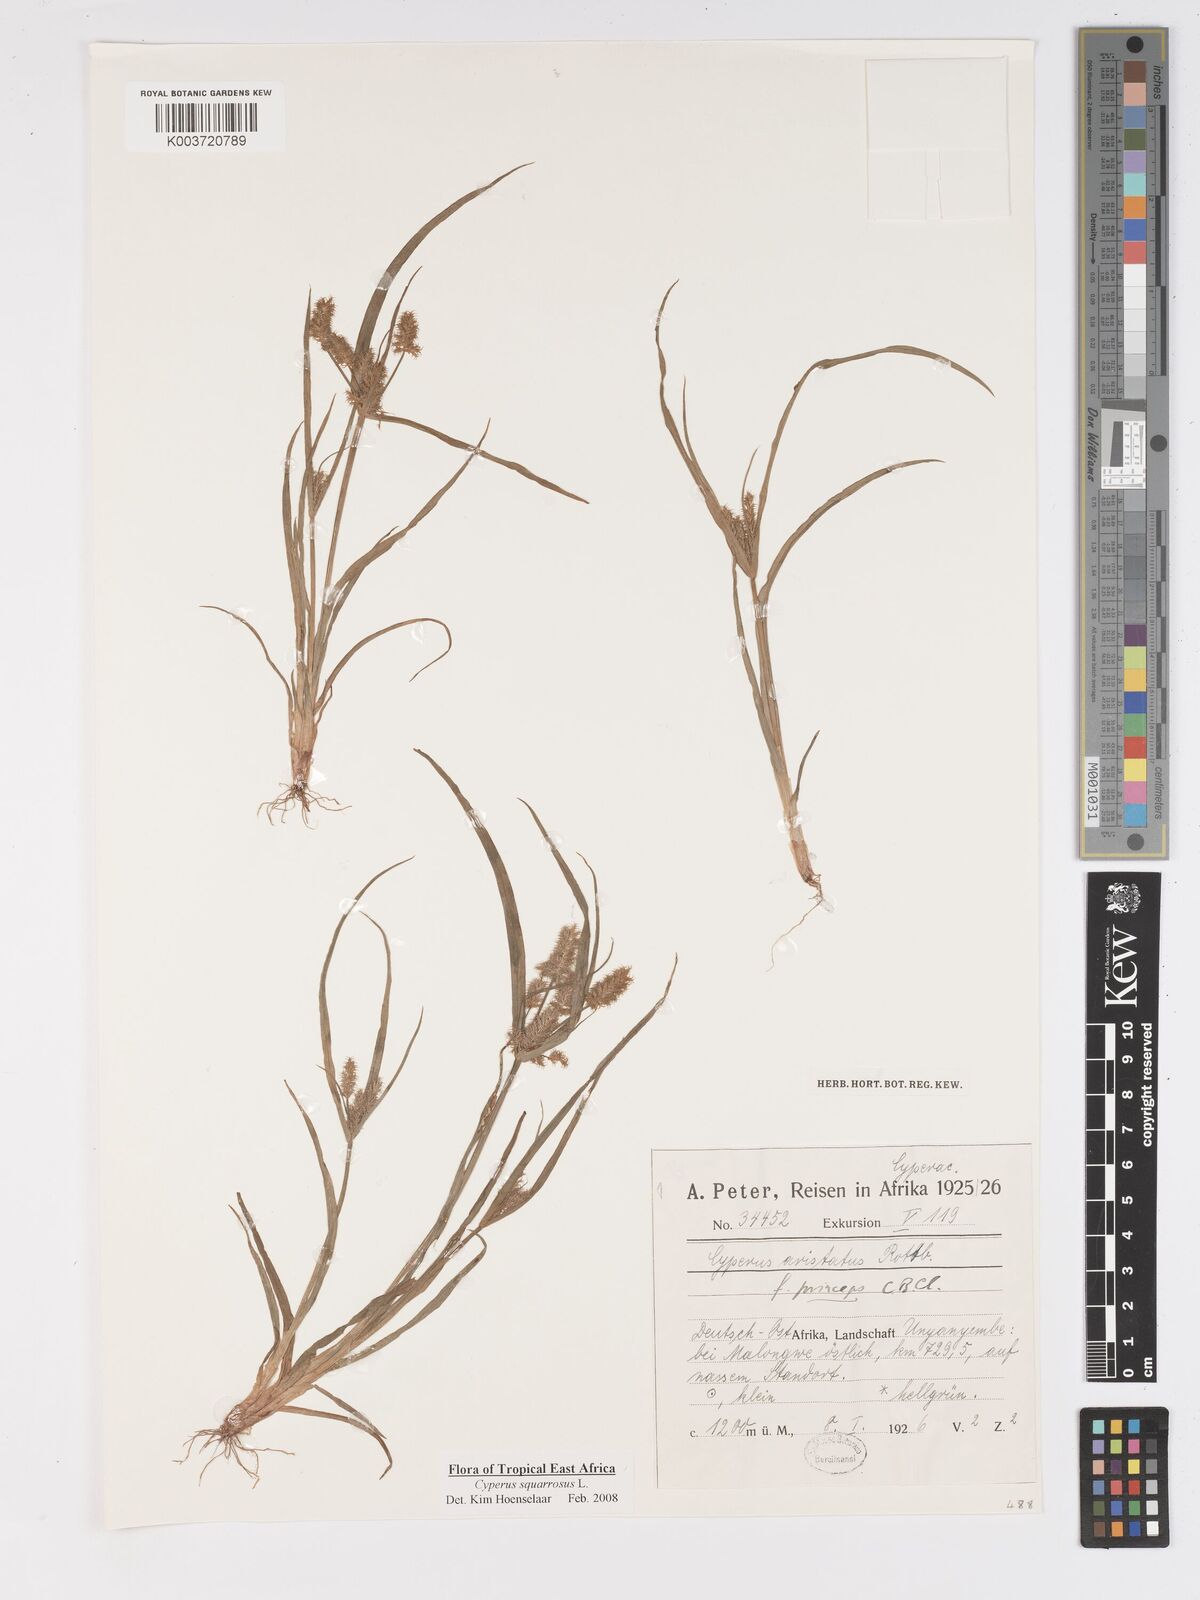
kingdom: Plantae
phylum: Tracheophyta
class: Liliopsida
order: Poales
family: Cyperaceae
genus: Cyperus
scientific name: Cyperus squarrosus
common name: Awned cyperus
